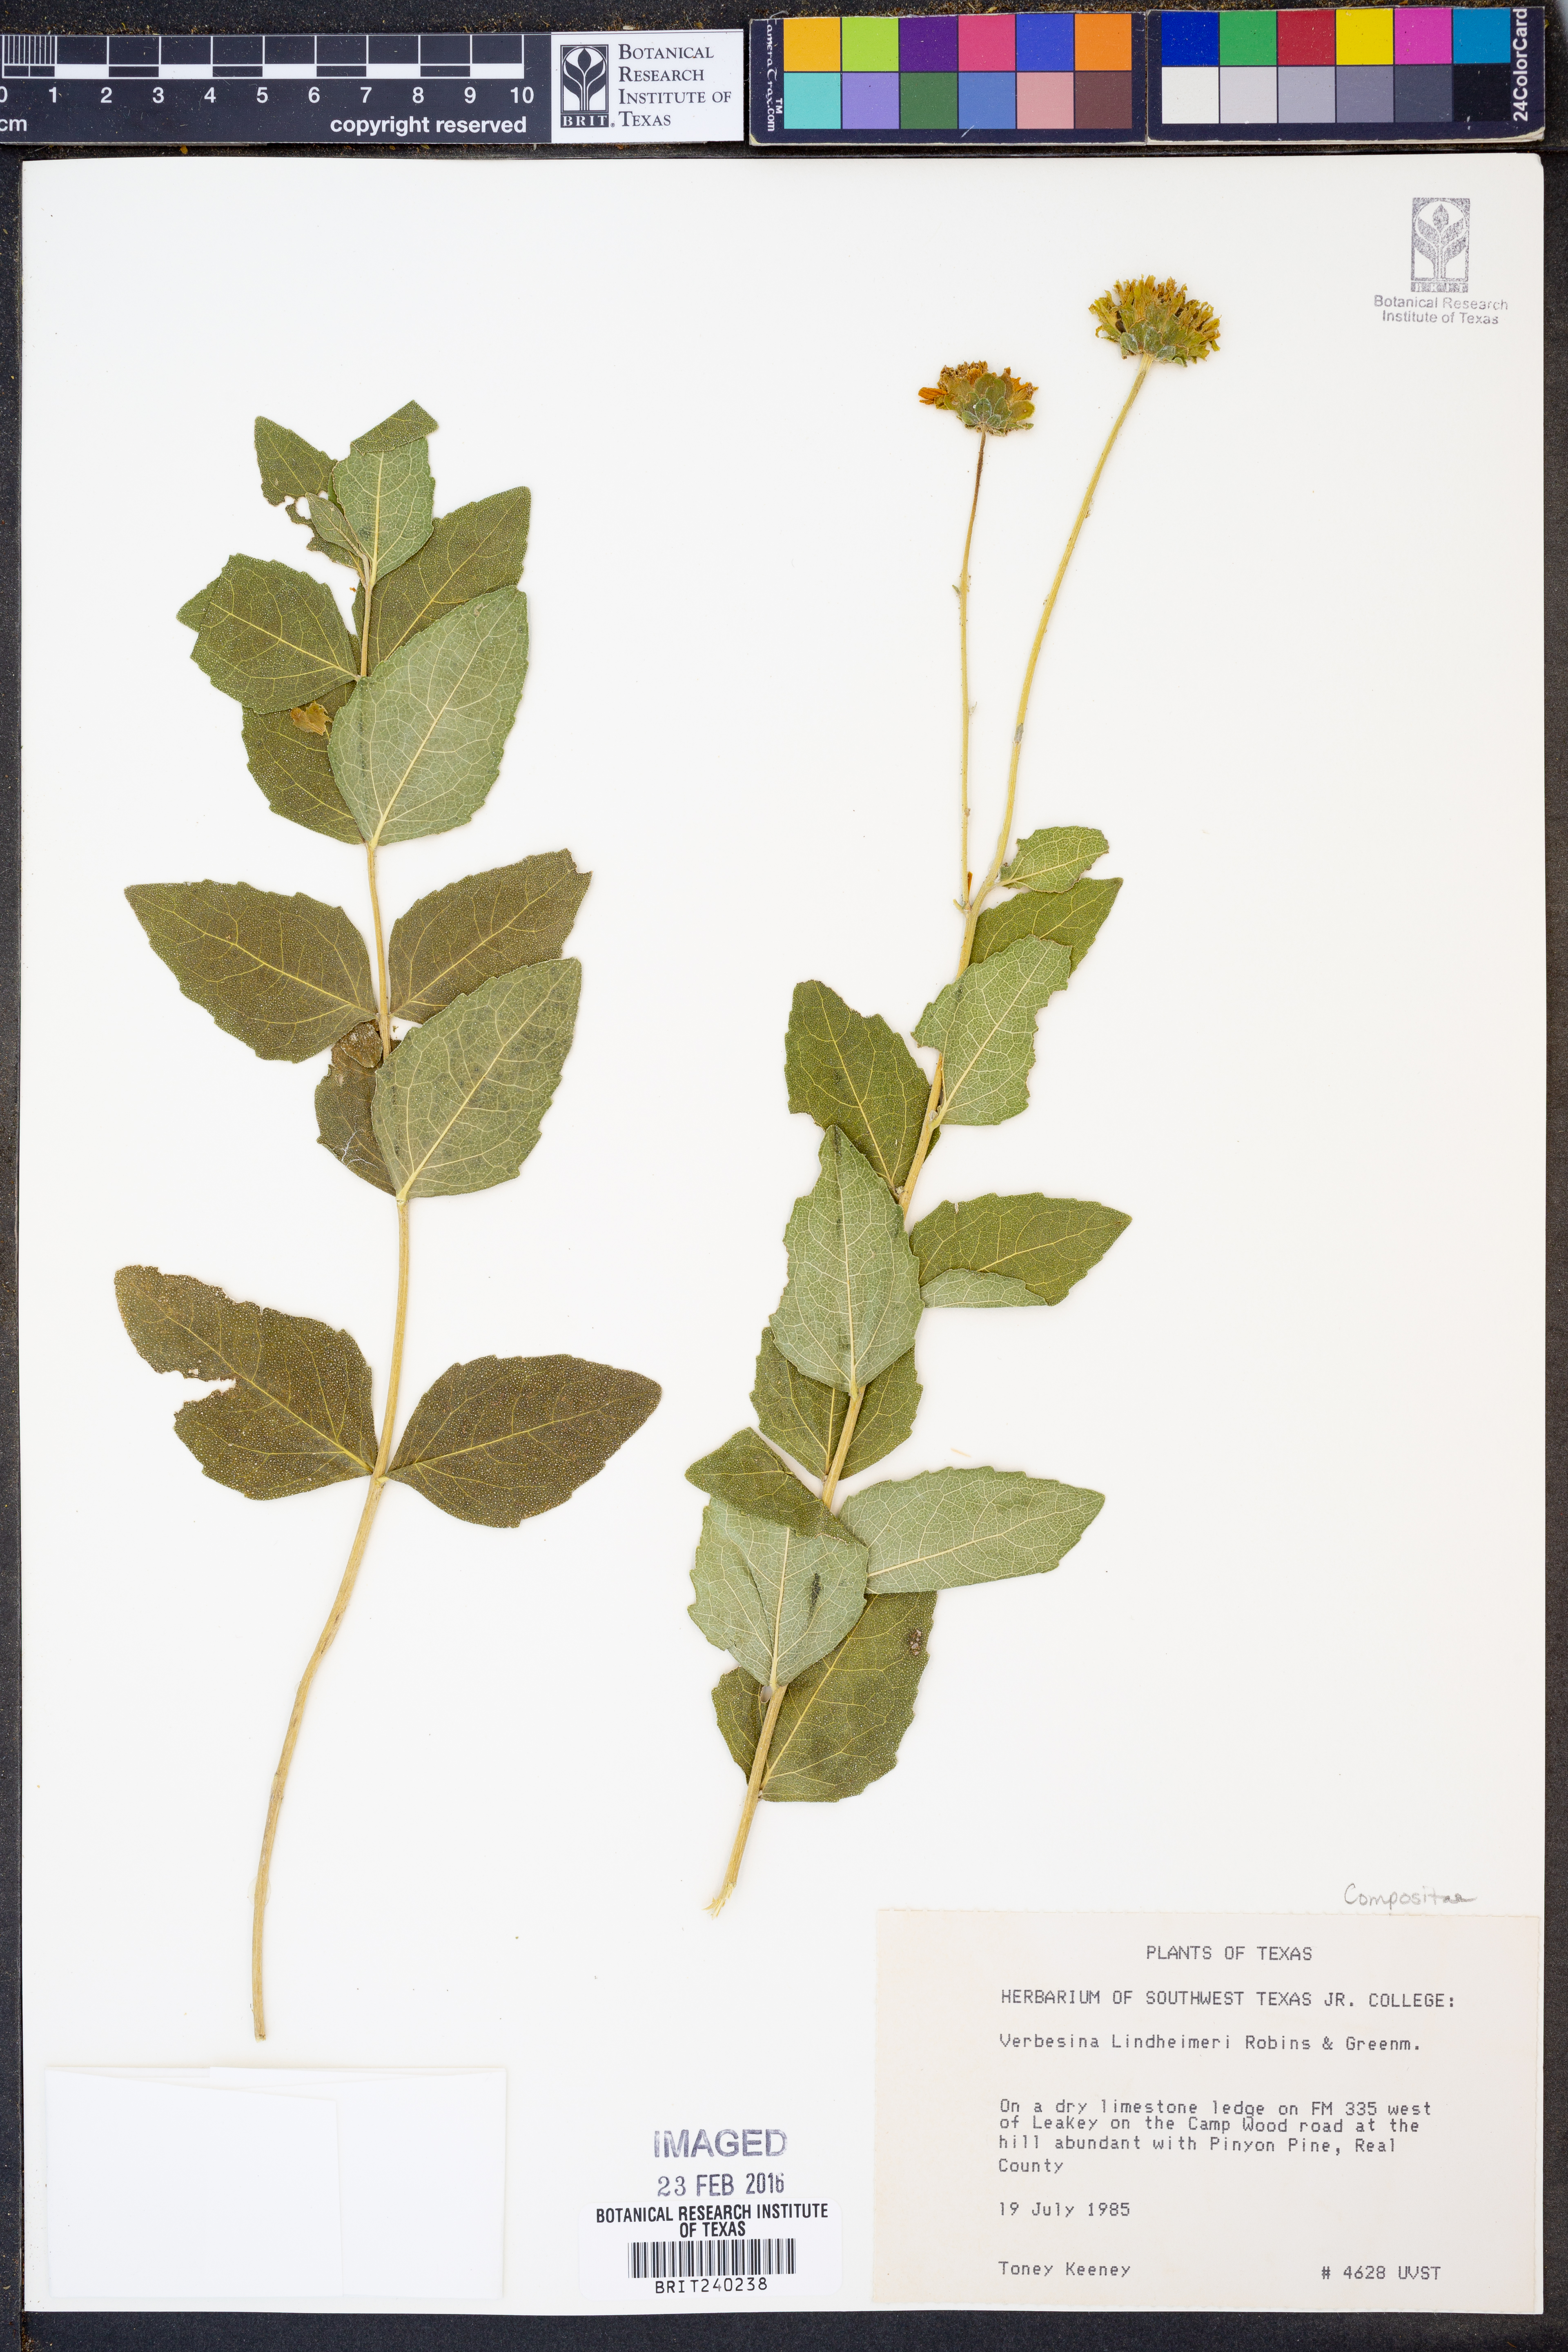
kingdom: Plantae
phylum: Tracheophyta
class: Magnoliopsida
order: Asterales
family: Asteraceae
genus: Verbesina
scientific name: Verbesina lindheimeri
